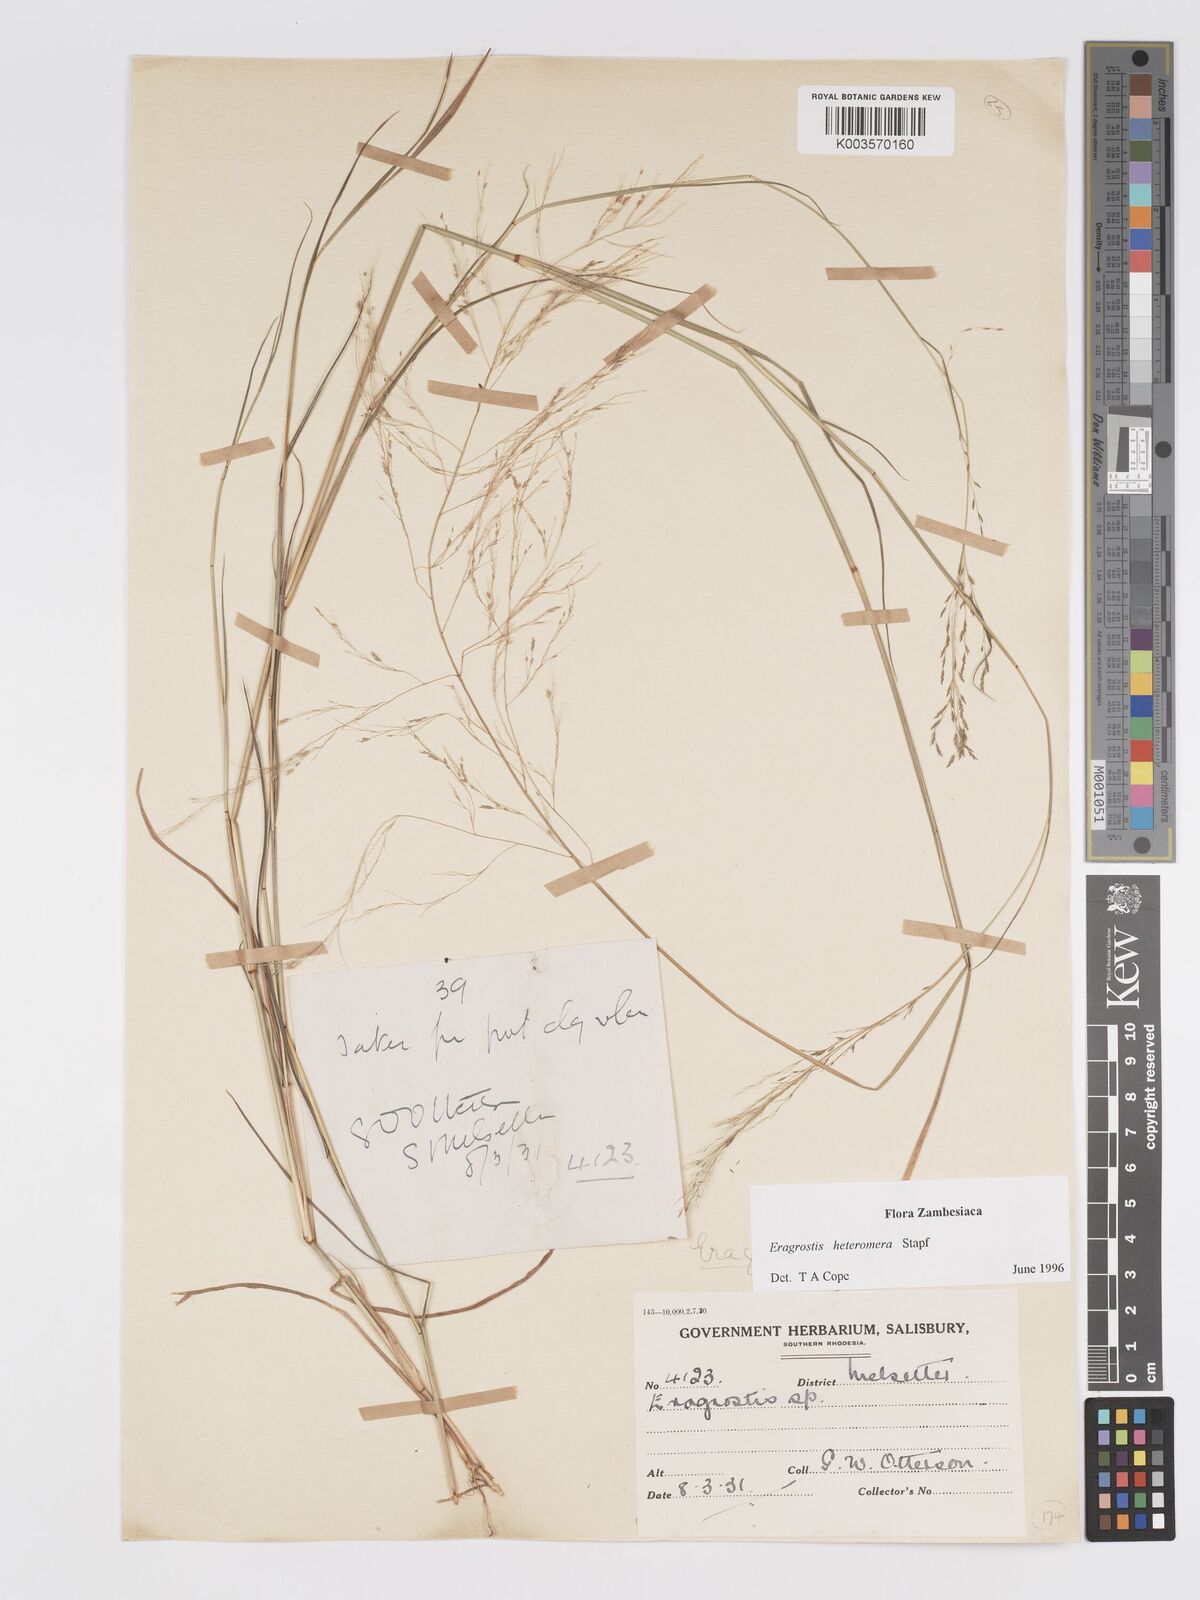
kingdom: Plantae
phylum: Tracheophyta
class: Liliopsida
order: Poales
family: Poaceae
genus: Eragrostis
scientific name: Eragrostis heteromera
